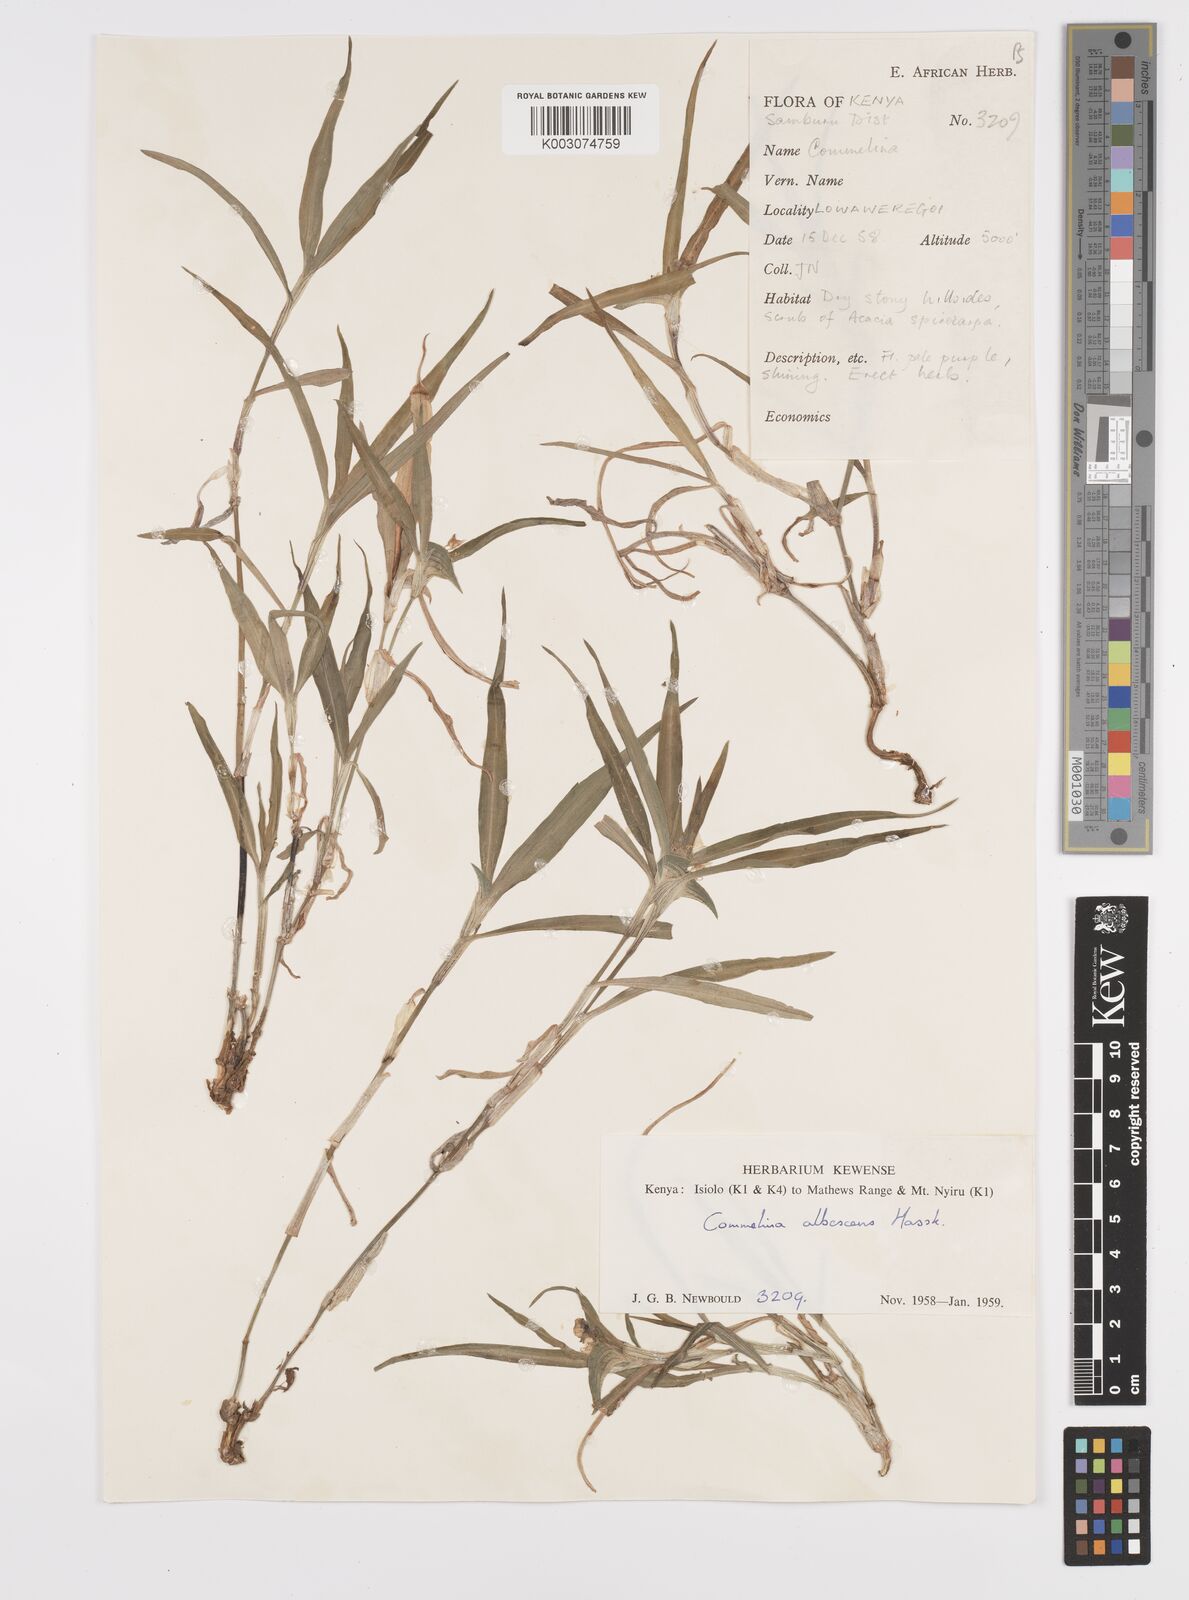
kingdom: Plantae
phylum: Tracheophyta
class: Liliopsida
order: Commelinales
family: Commelinaceae
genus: Commelina
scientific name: Commelina albescens
